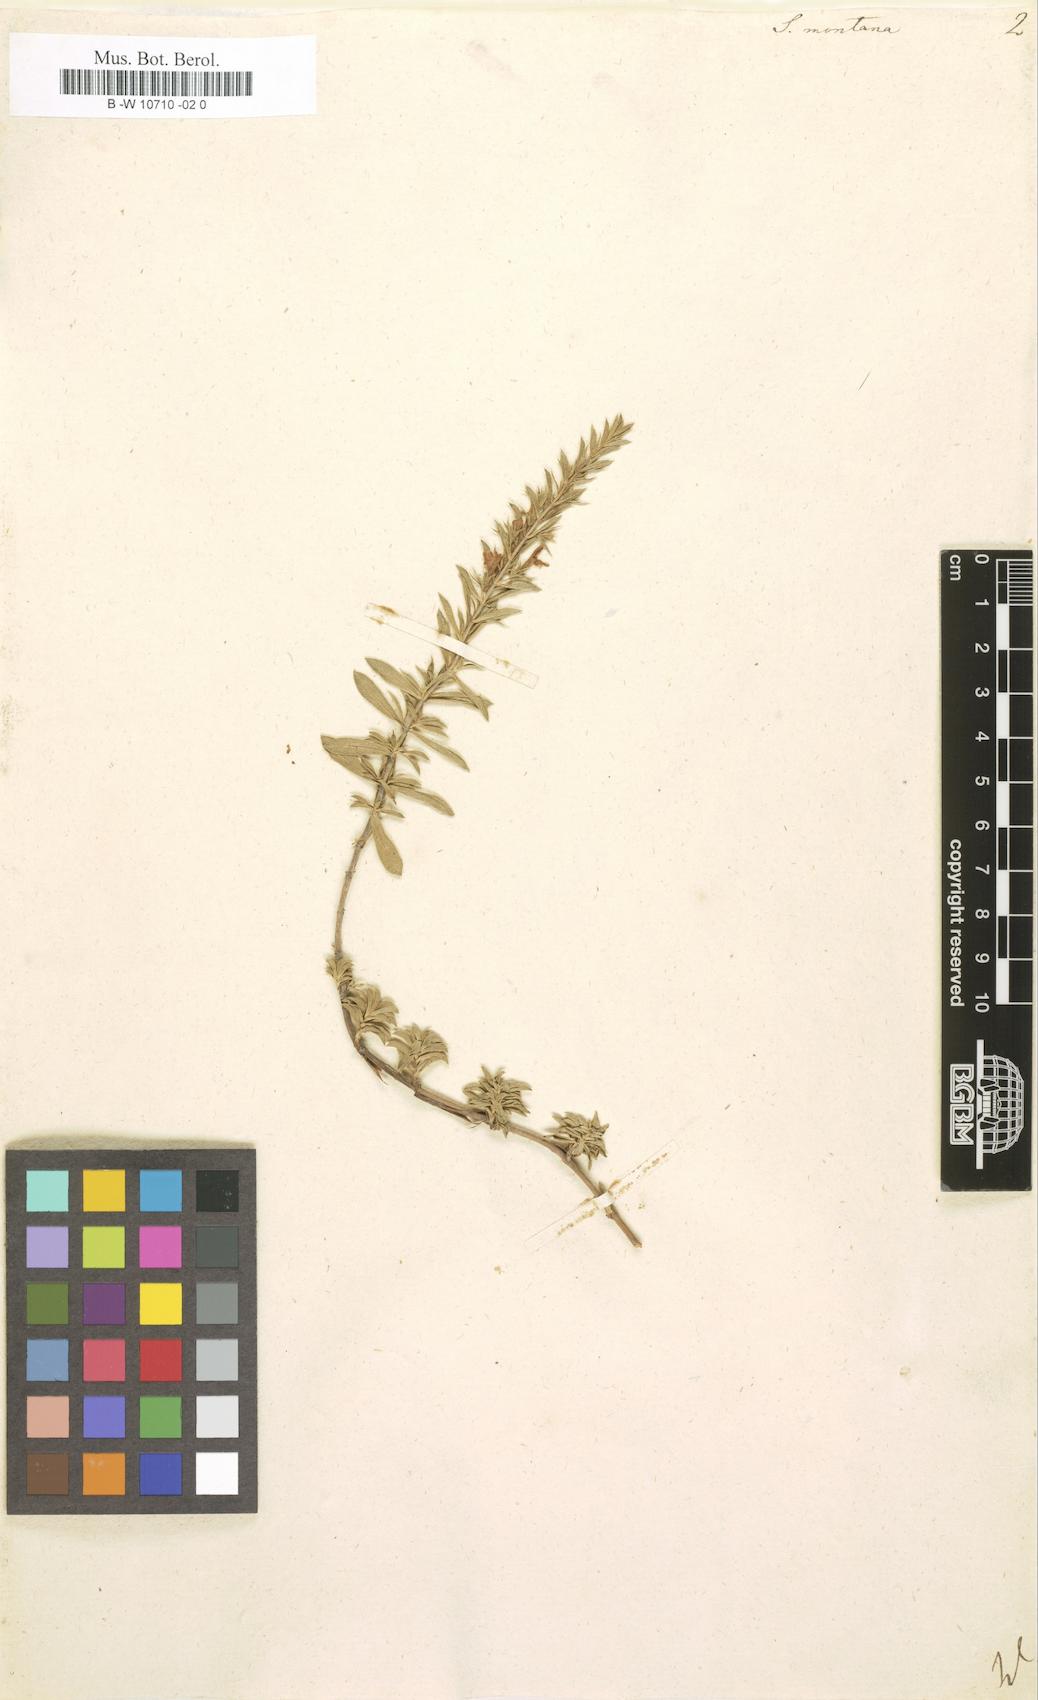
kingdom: Plantae
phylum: Tracheophyta
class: Magnoliopsida
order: Lamiales
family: Lamiaceae
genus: Satureja
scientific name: Satureja montana
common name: Winter savory
